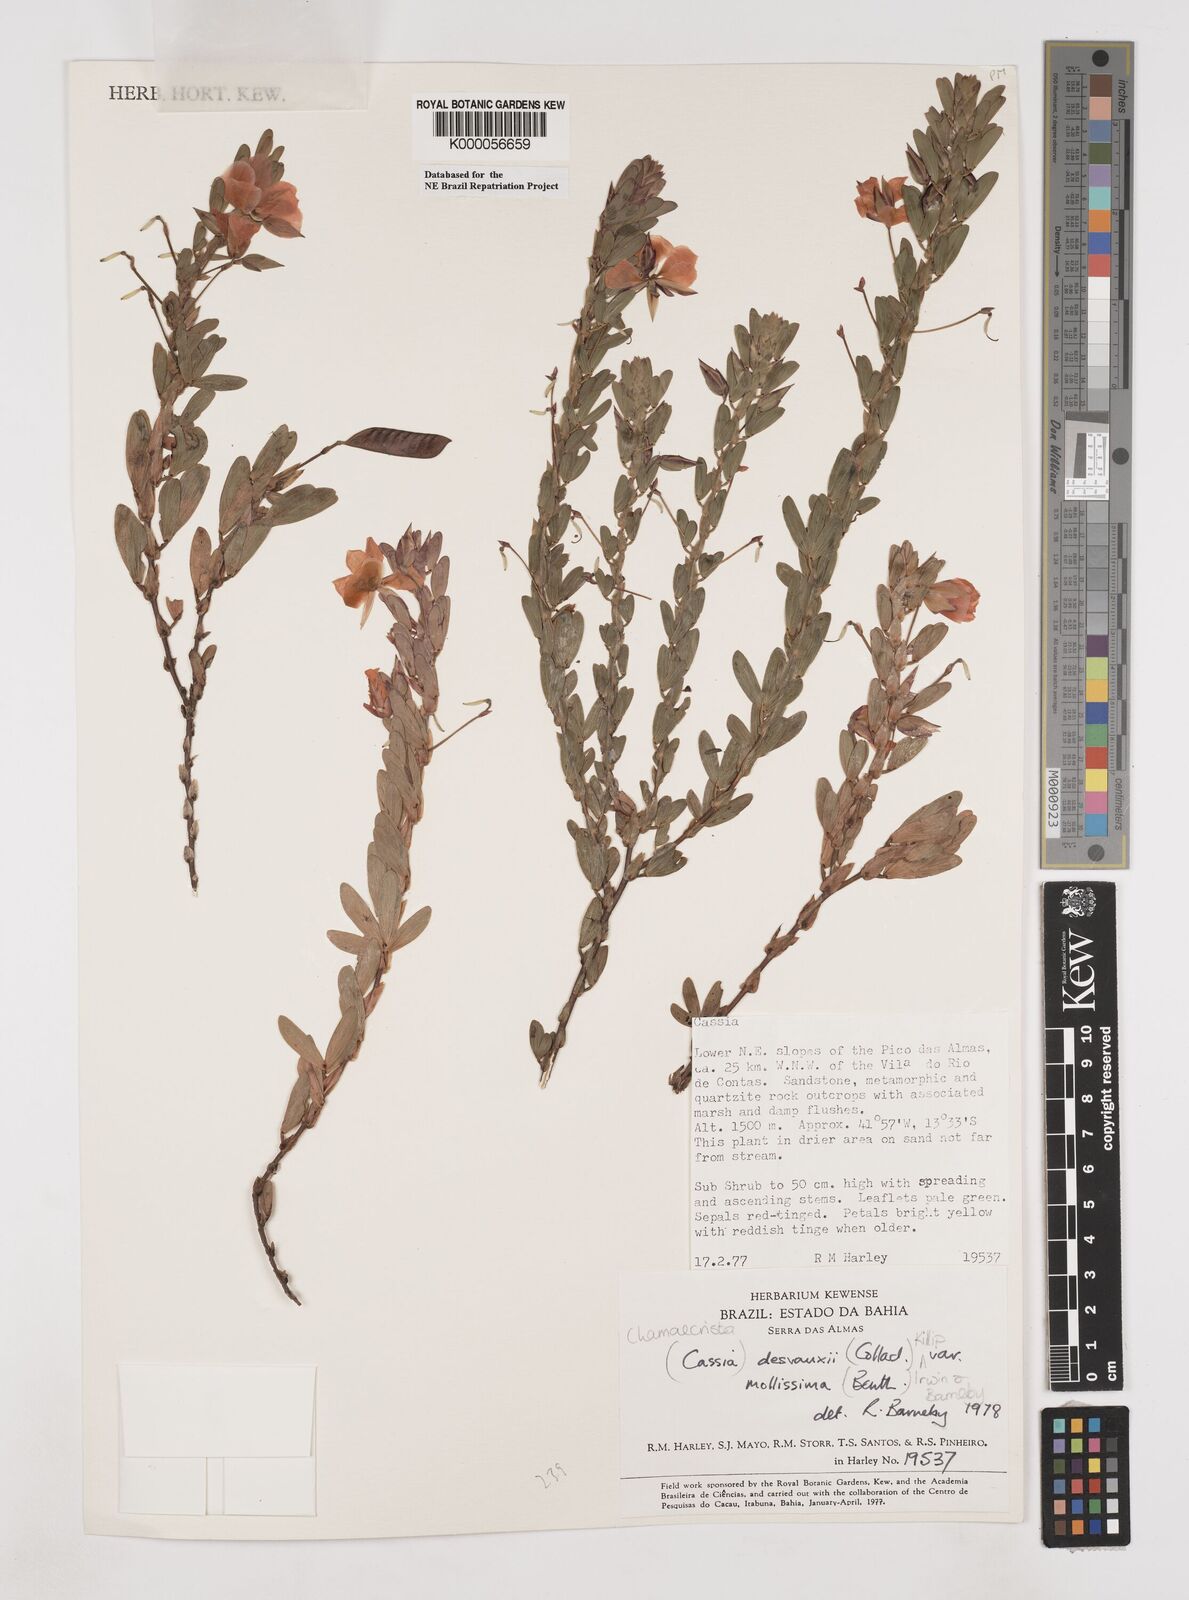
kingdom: Plantae
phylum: Tracheophyta
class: Magnoliopsida
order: Fabales
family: Fabaceae
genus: Chamaecrista
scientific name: Chamaecrista desvauxii
